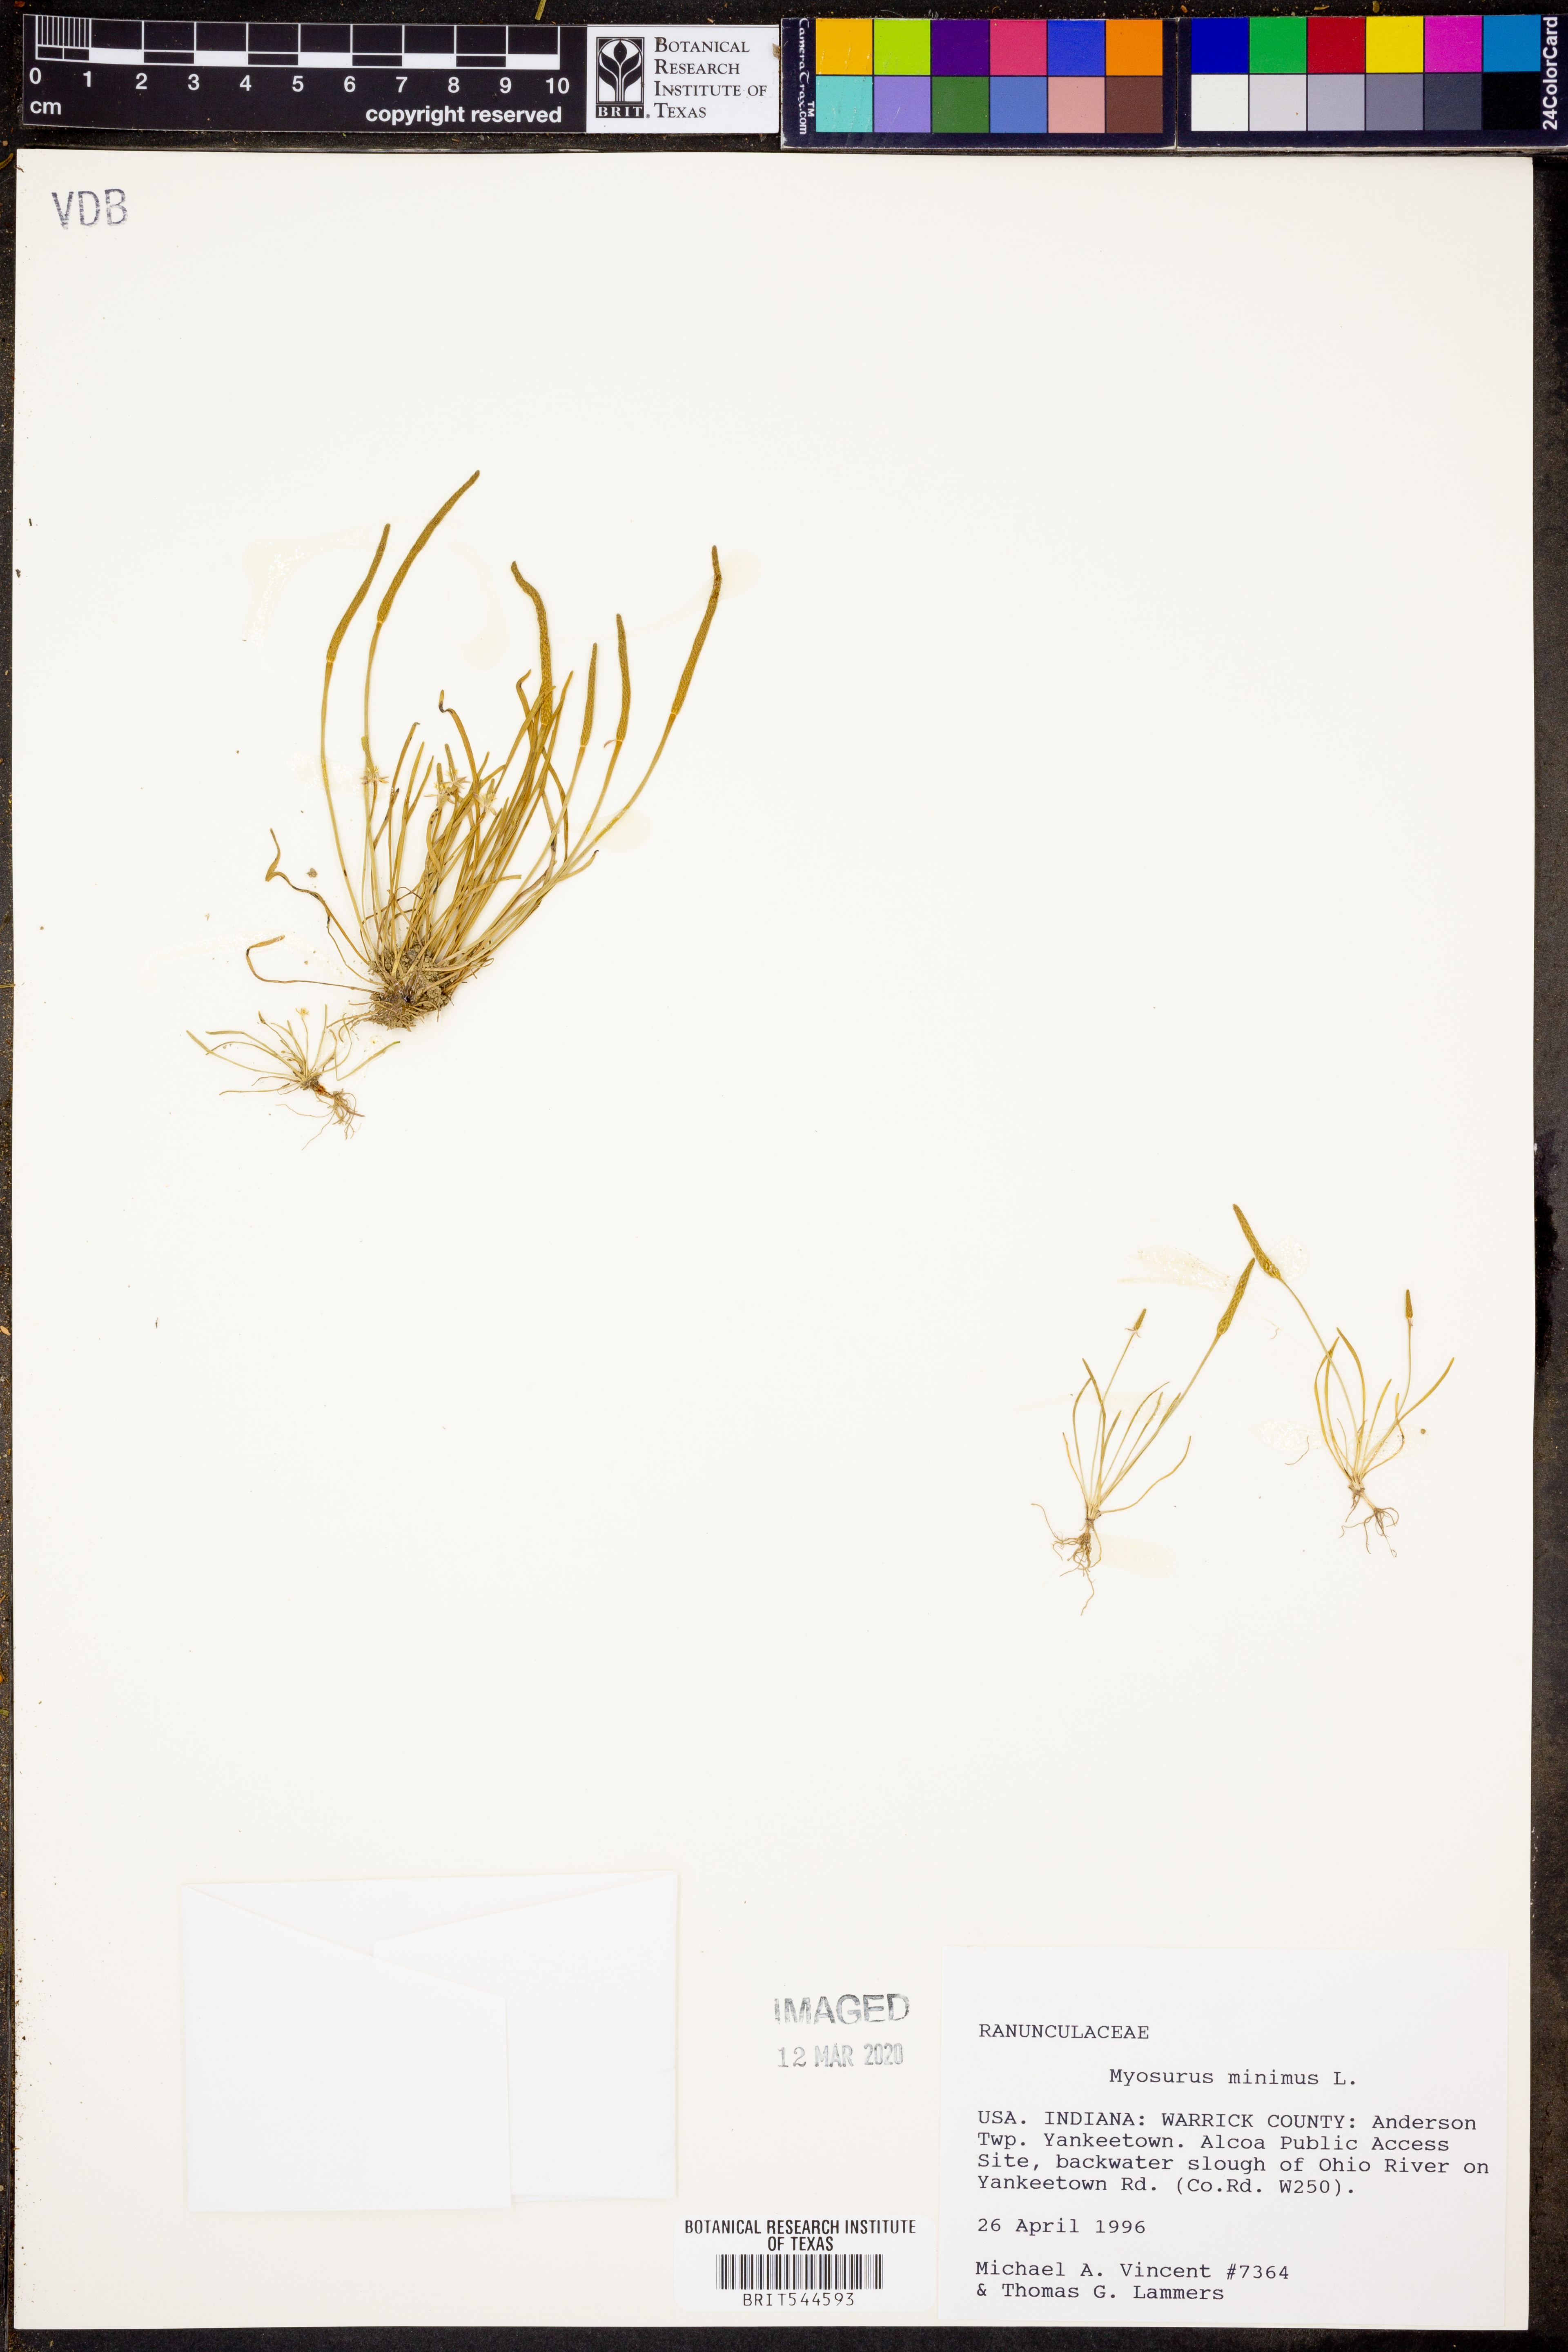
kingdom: Plantae
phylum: Tracheophyta
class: Magnoliopsida
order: Ranunculales
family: Ranunculaceae
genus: Myosurus
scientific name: Myosurus minimus
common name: Mousetail
